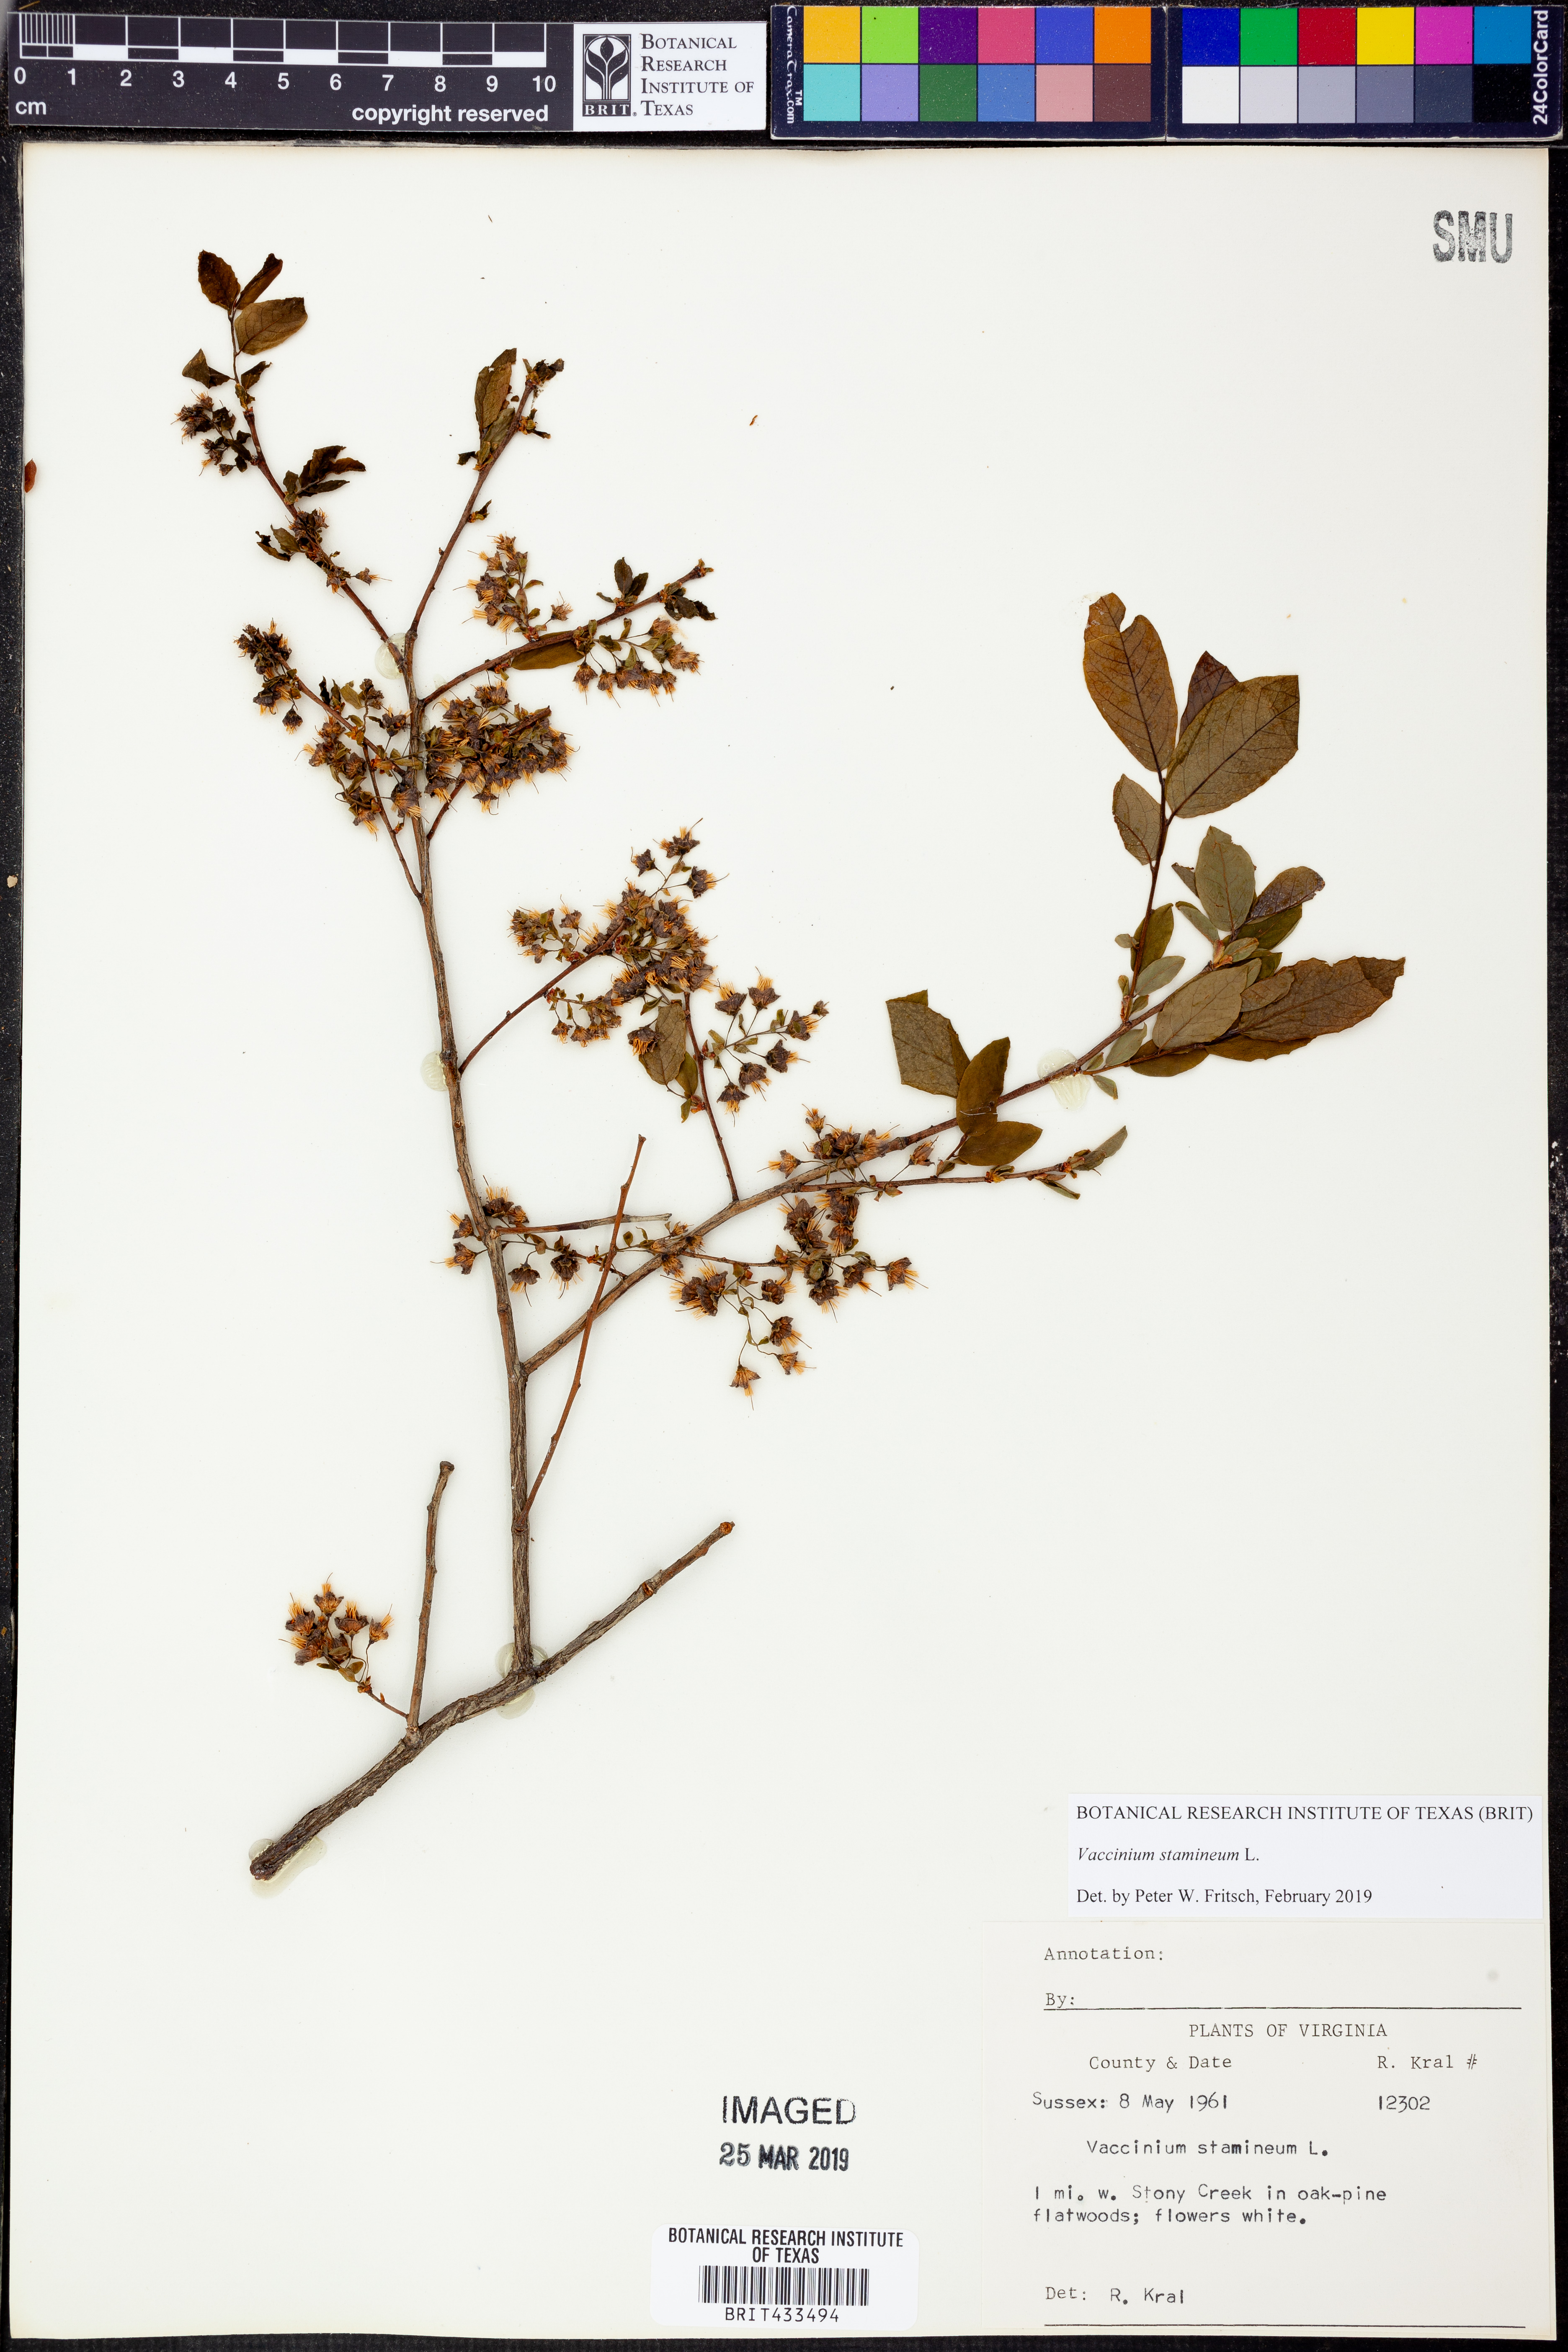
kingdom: Plantae
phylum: Tracheophyta
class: Magnoliopsida
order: Ericales
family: Ericaceae
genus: Vaccinium
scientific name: Vaccinium stamineum
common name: Deerberry
